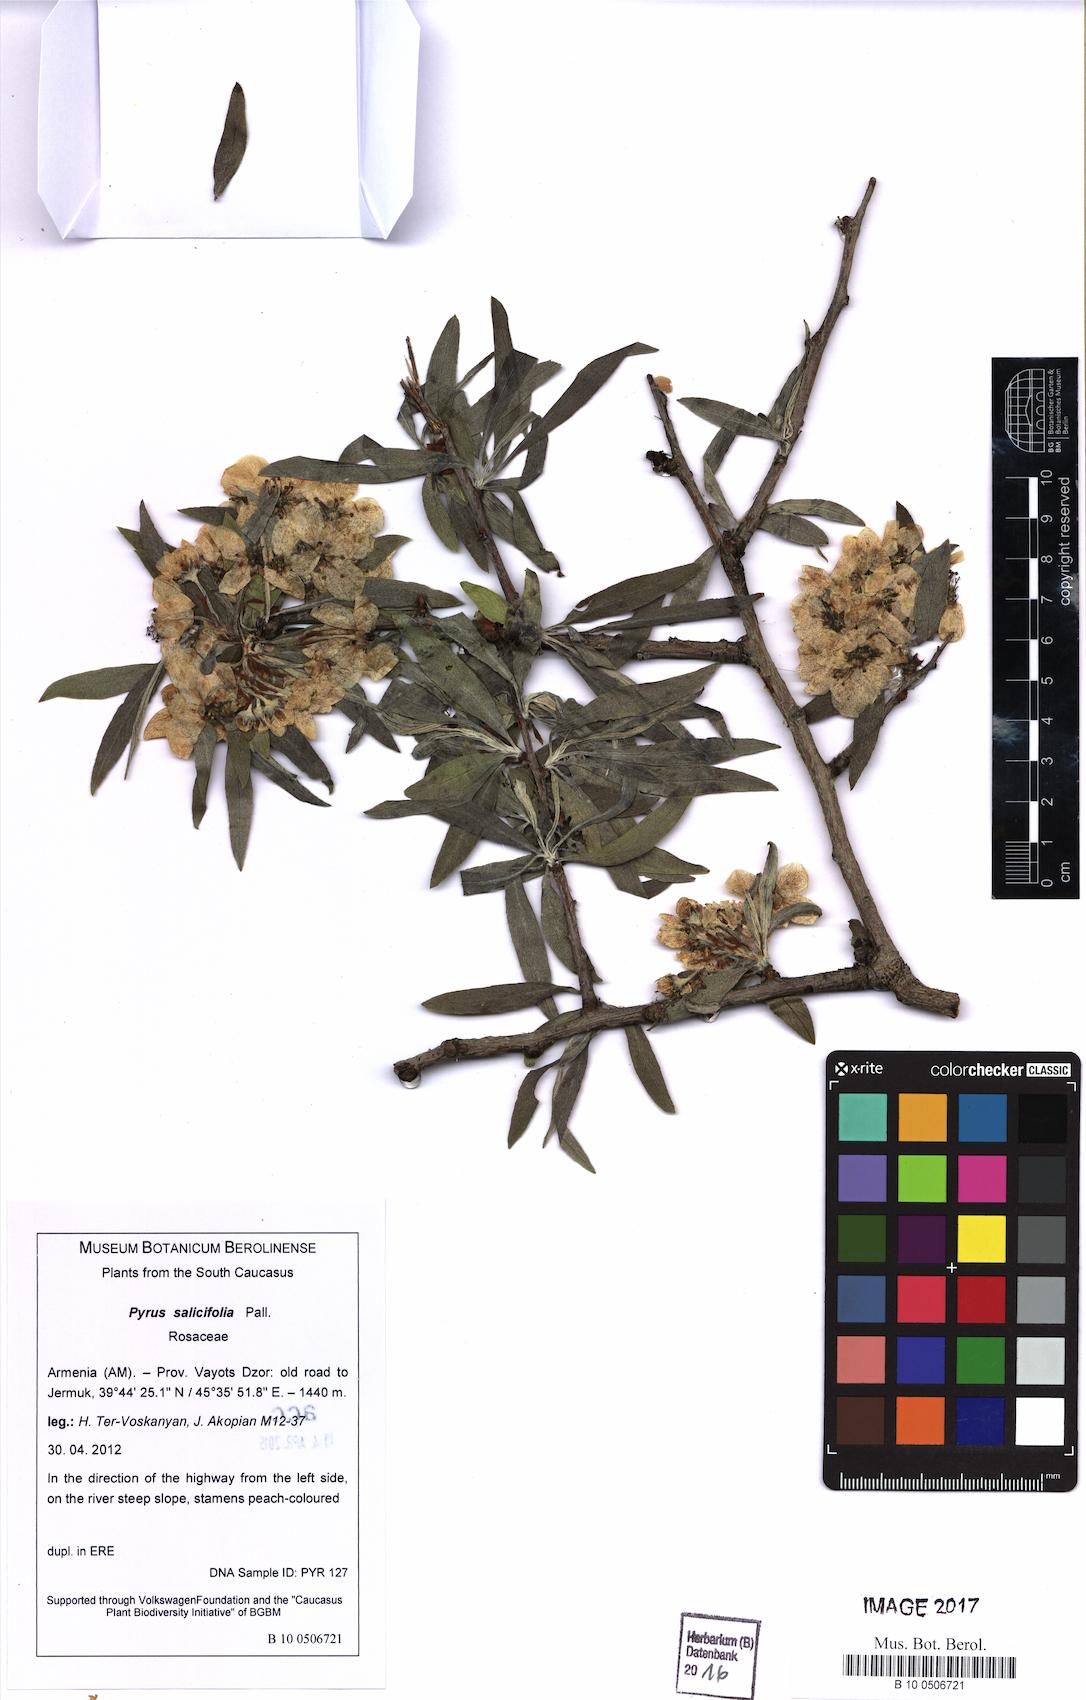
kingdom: Plantae
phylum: Tracheophyta
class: Magnoliopsida
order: Rosales
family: Rosaceae
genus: Pyrus
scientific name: Pyrus salicifolia
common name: Willow-leaved pear
